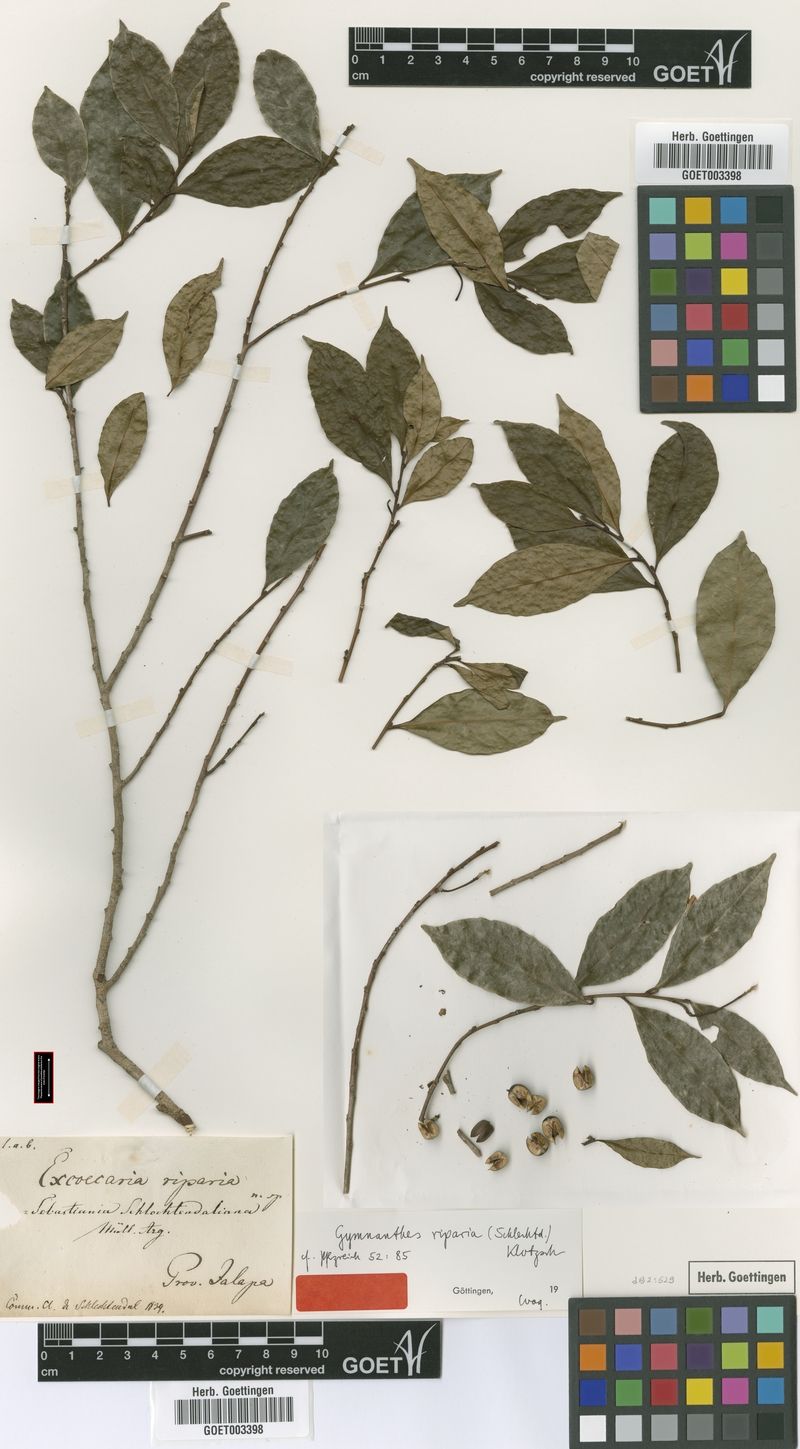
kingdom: Plantae
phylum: Tracheophyta
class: Magnoliopsida
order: Malpighiales
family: Euphorbiaceae
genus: Gymnanthes
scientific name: Gymnanthes riparia
